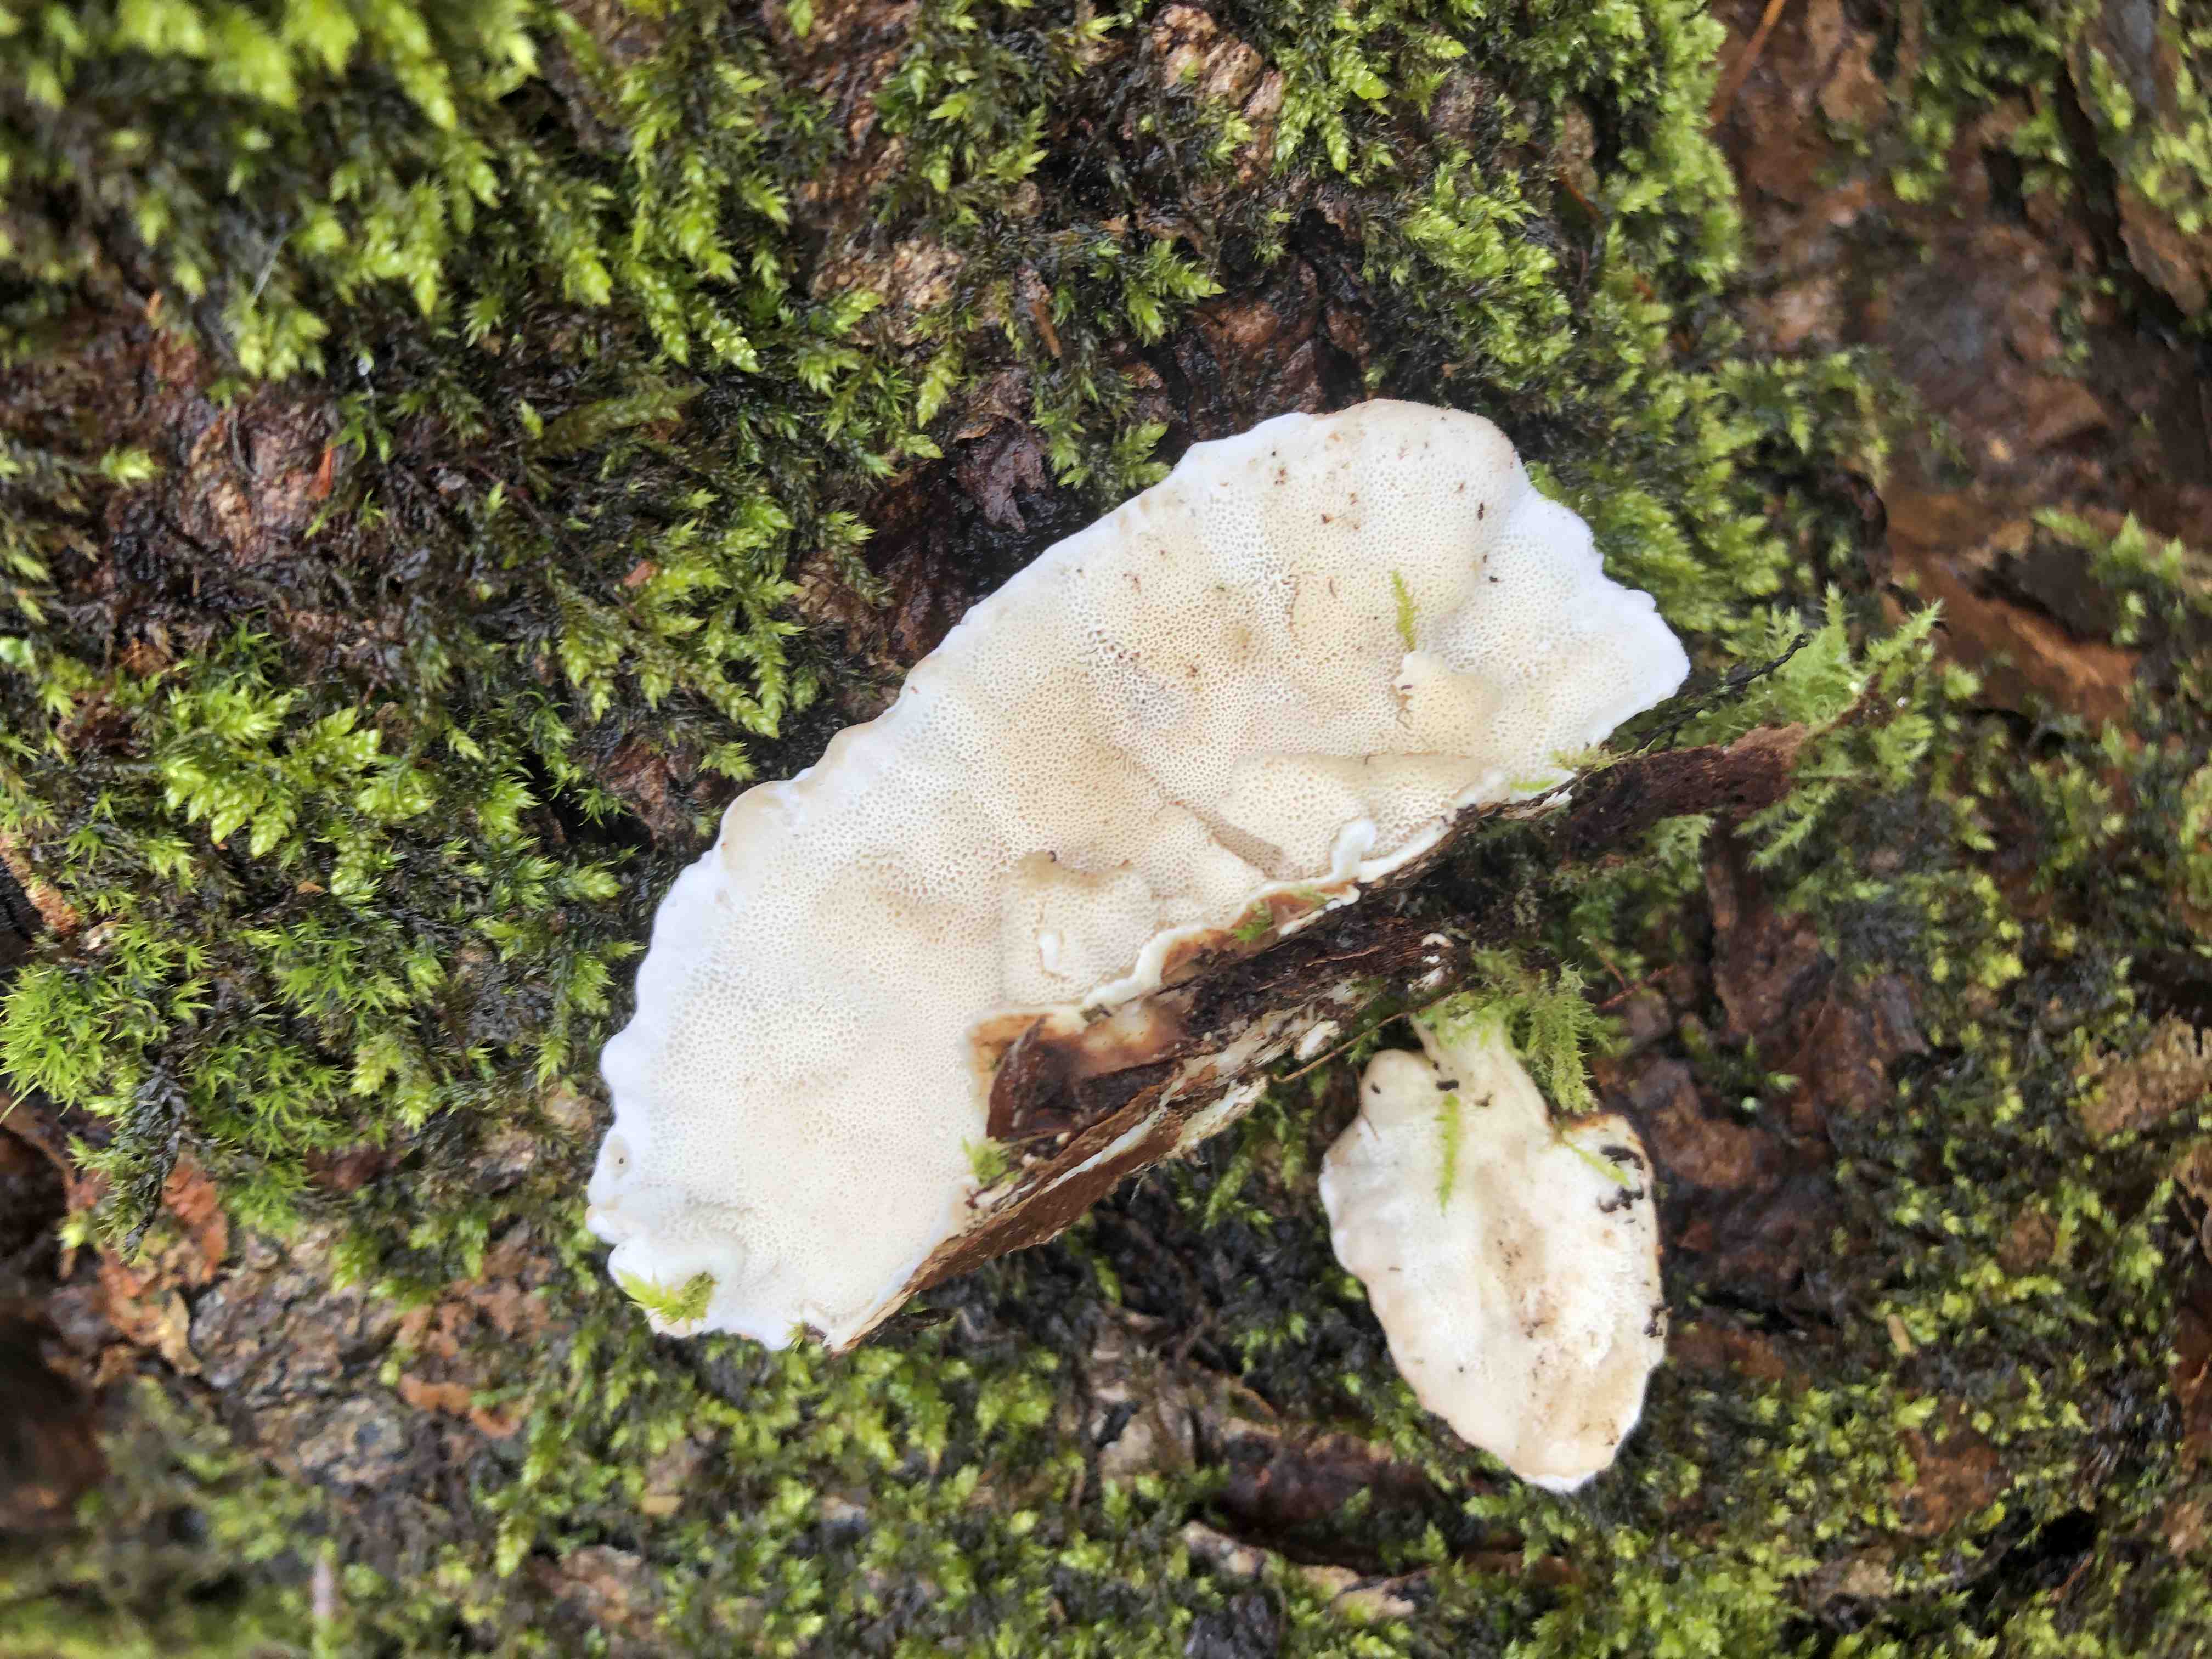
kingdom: Fungi
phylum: Basidiomycota
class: Agaricomycetes
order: Polyporales
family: Polyporaceae
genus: Trametes
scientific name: Trametes versicolor
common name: broget læderporesvamp
